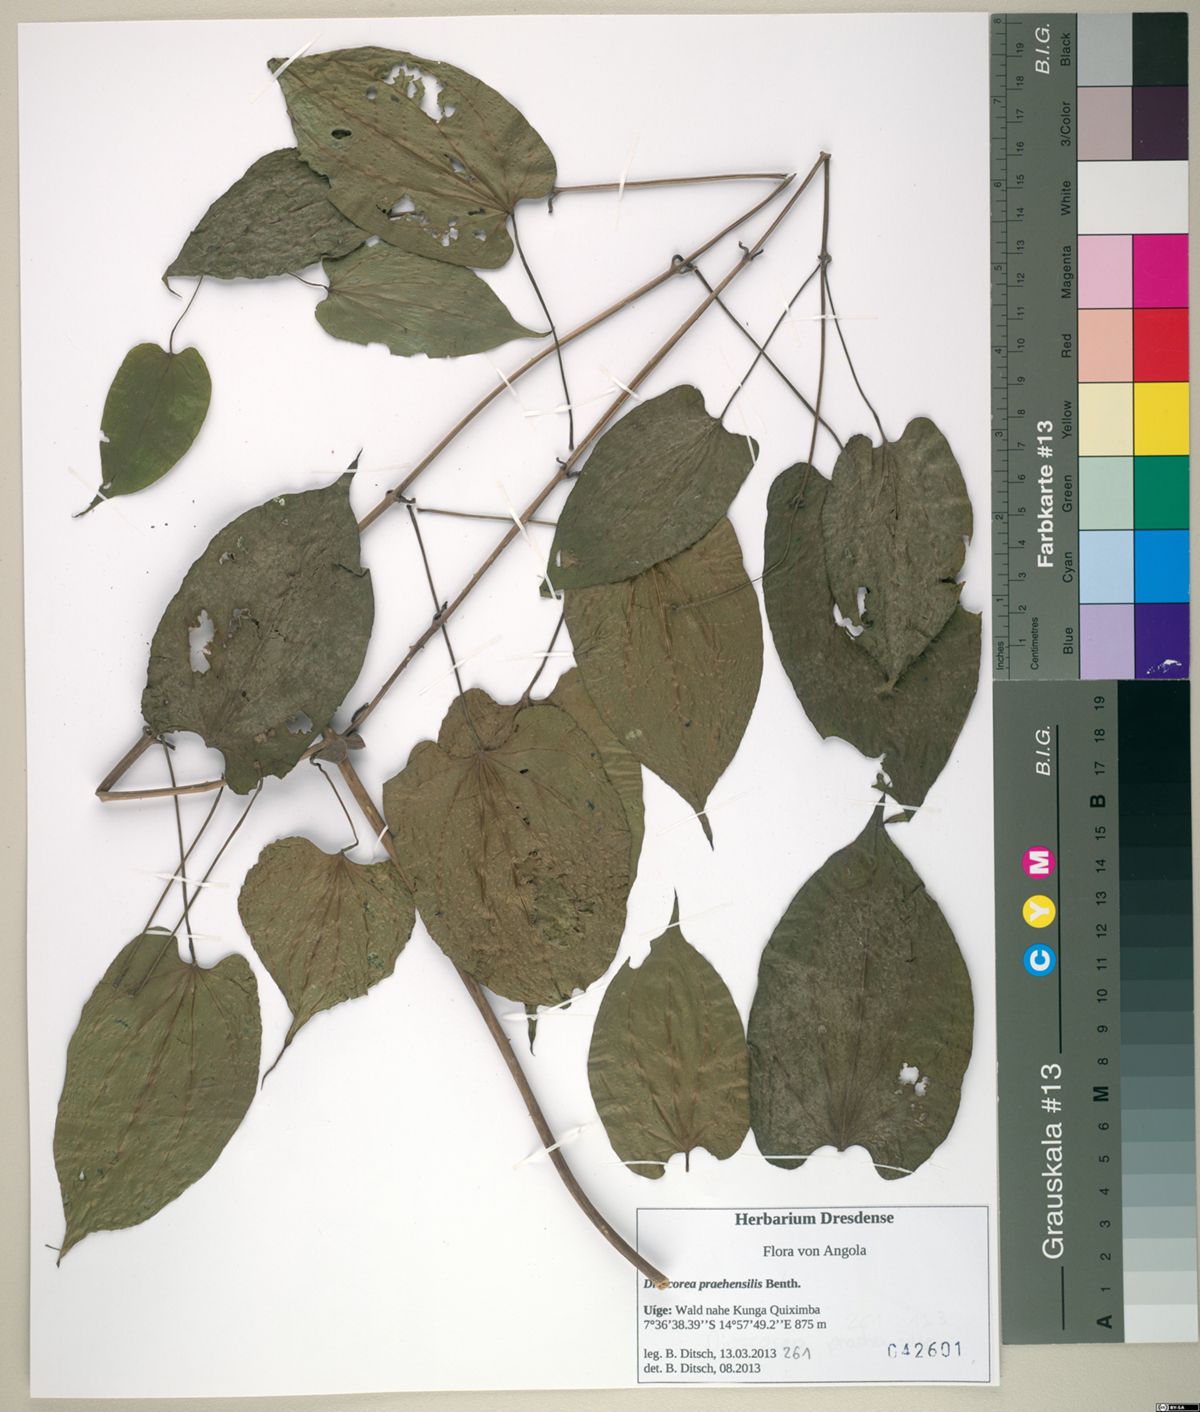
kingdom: Plantae
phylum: Tracheophyta
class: Liliopsida
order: Dioscoreales
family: Dioscoreaceae
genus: Dioscorea
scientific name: Dioscorea praehensilis
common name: Bush yam
